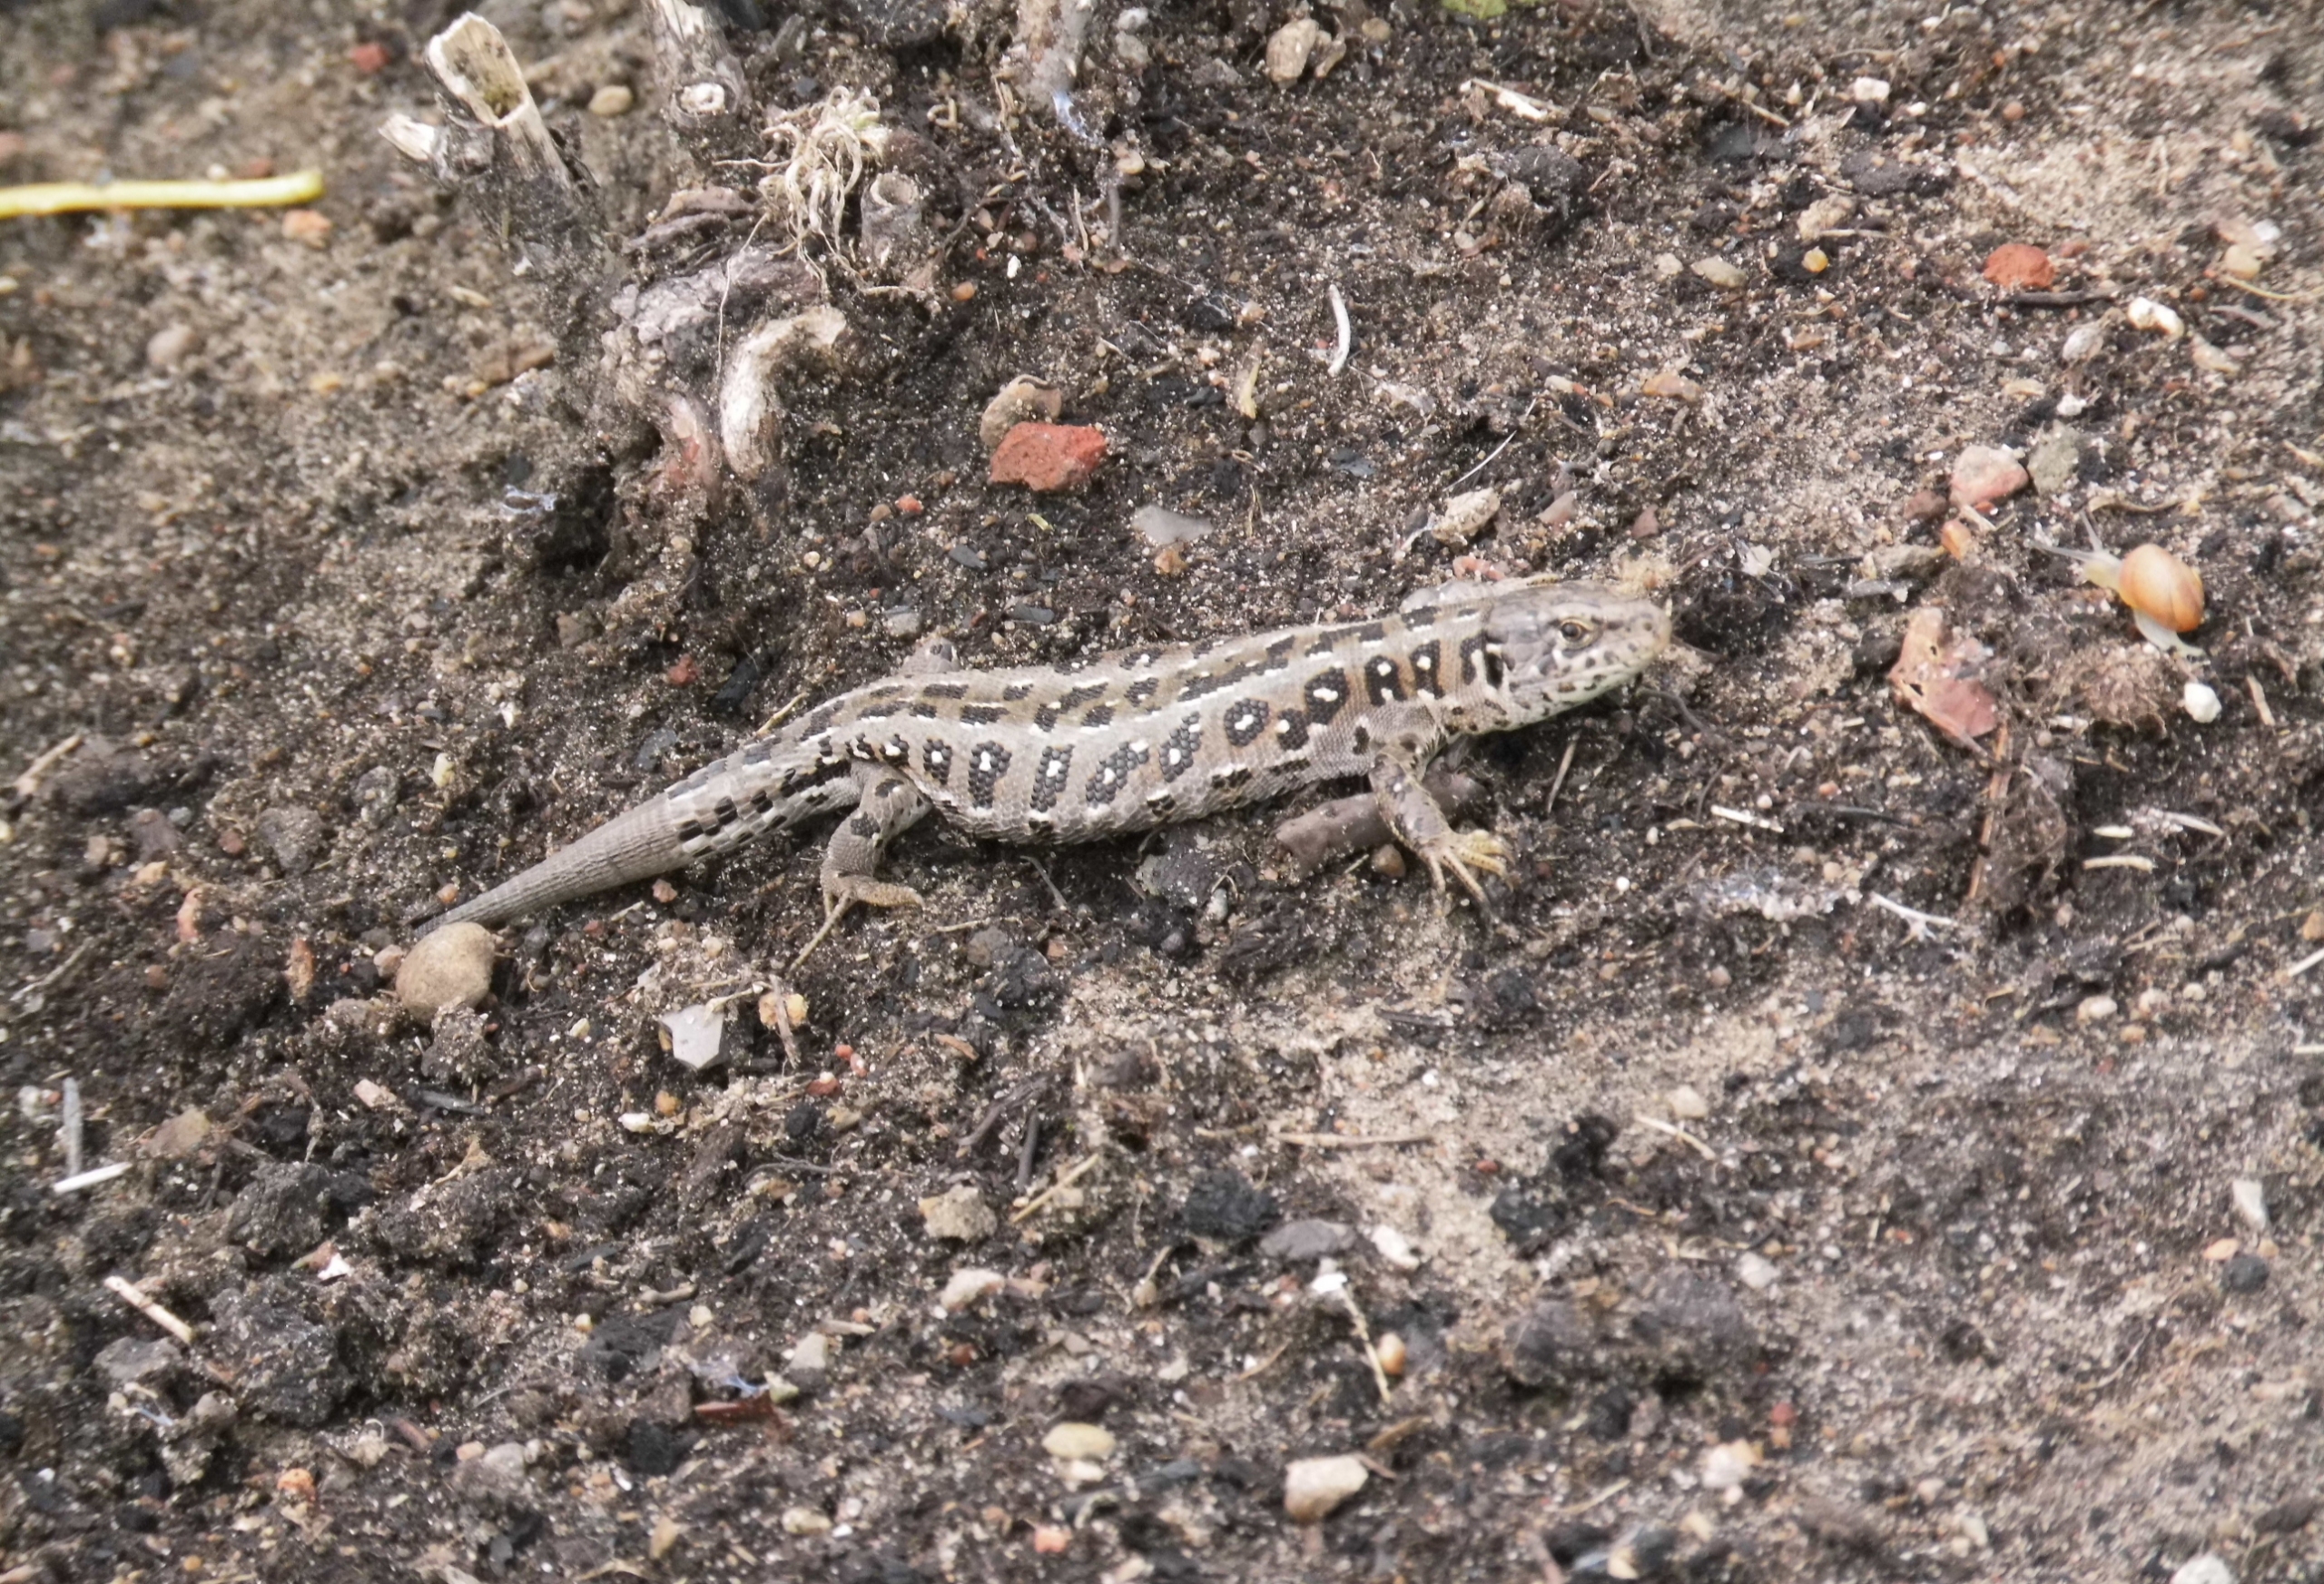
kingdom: Animalia
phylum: Chordata
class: Squamata
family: Lacertidae
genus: Lacerta
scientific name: Lacerta agilis
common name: Markfirben
